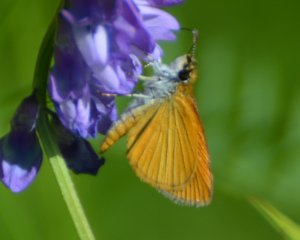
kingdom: Animalia
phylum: Arthropoda
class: Insecta
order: Lepidoptera
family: Hesperiidae
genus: Ancyloxypha
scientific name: Ancyloxypha numitor
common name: Least Skipper
